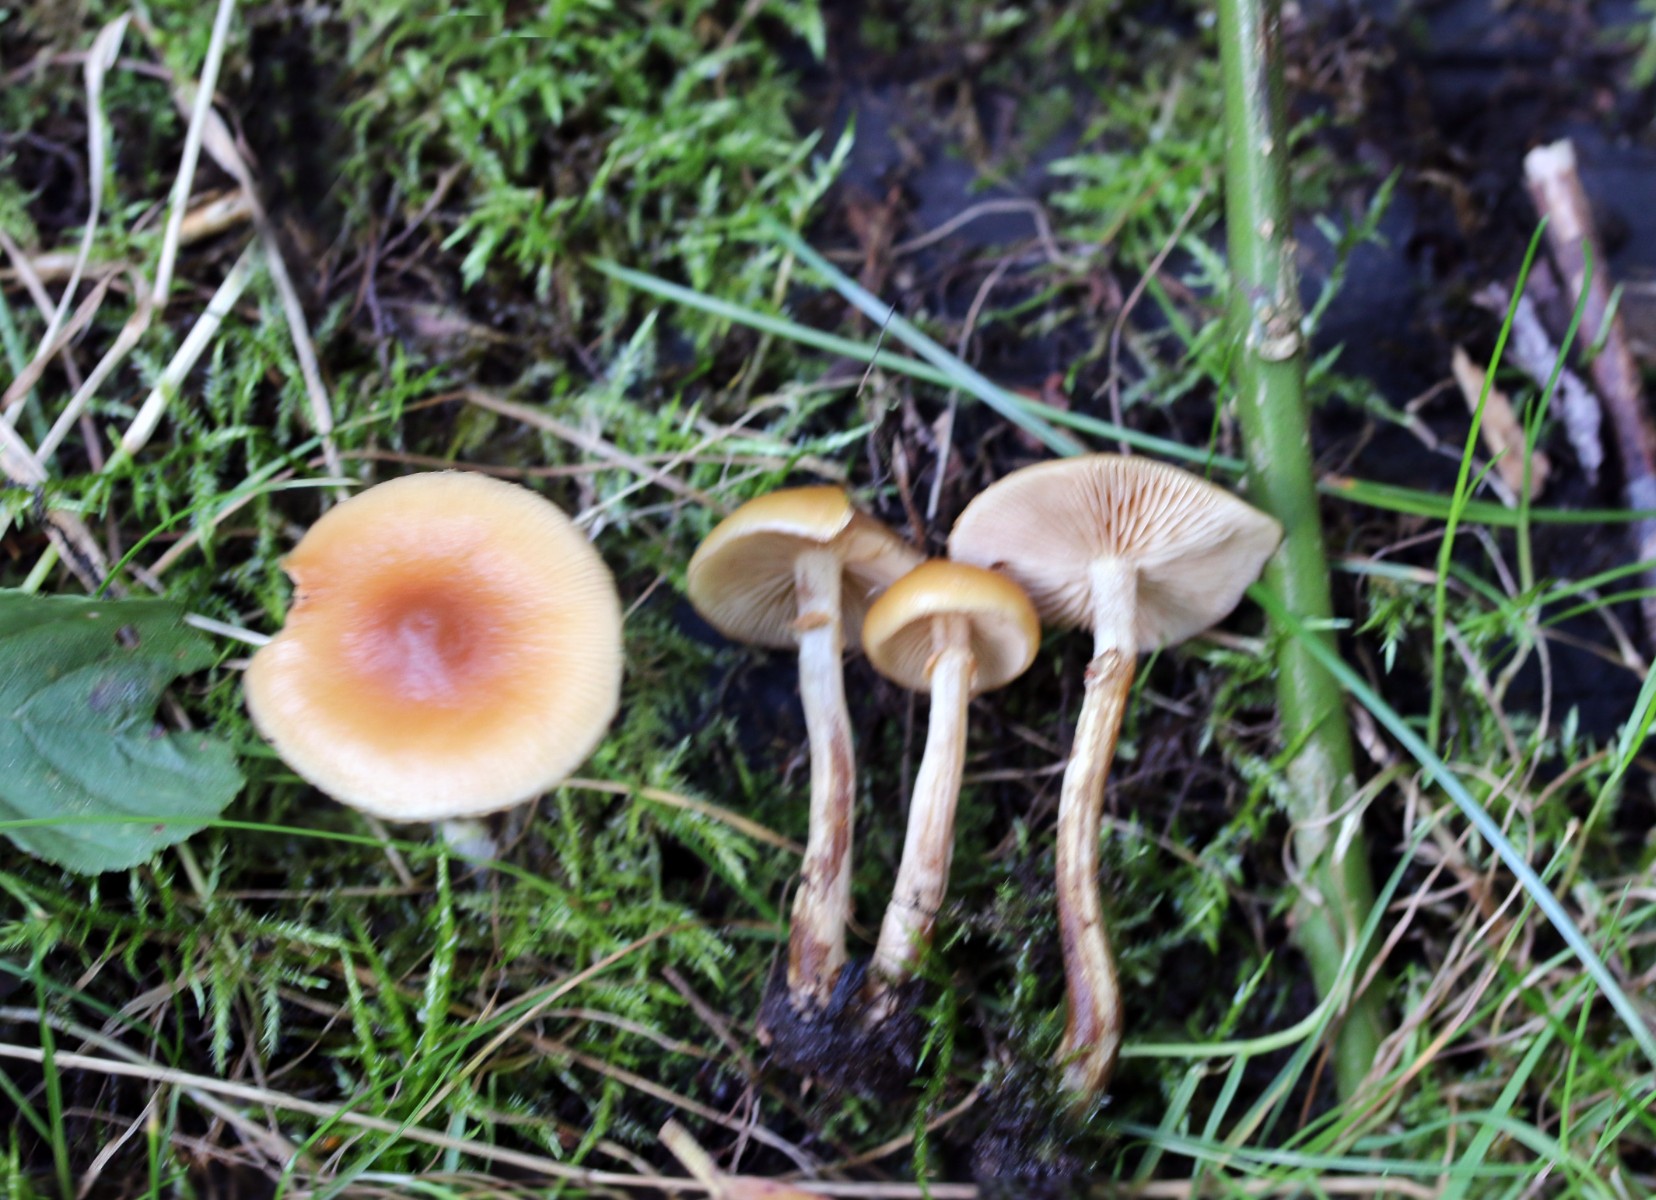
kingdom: Fungi
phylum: Basidiomycota
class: Agaricomycetes
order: Agaricales
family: Hymenogastraceae
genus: Galerina
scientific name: Galerina marginata
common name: randbæltet hjelmhat
